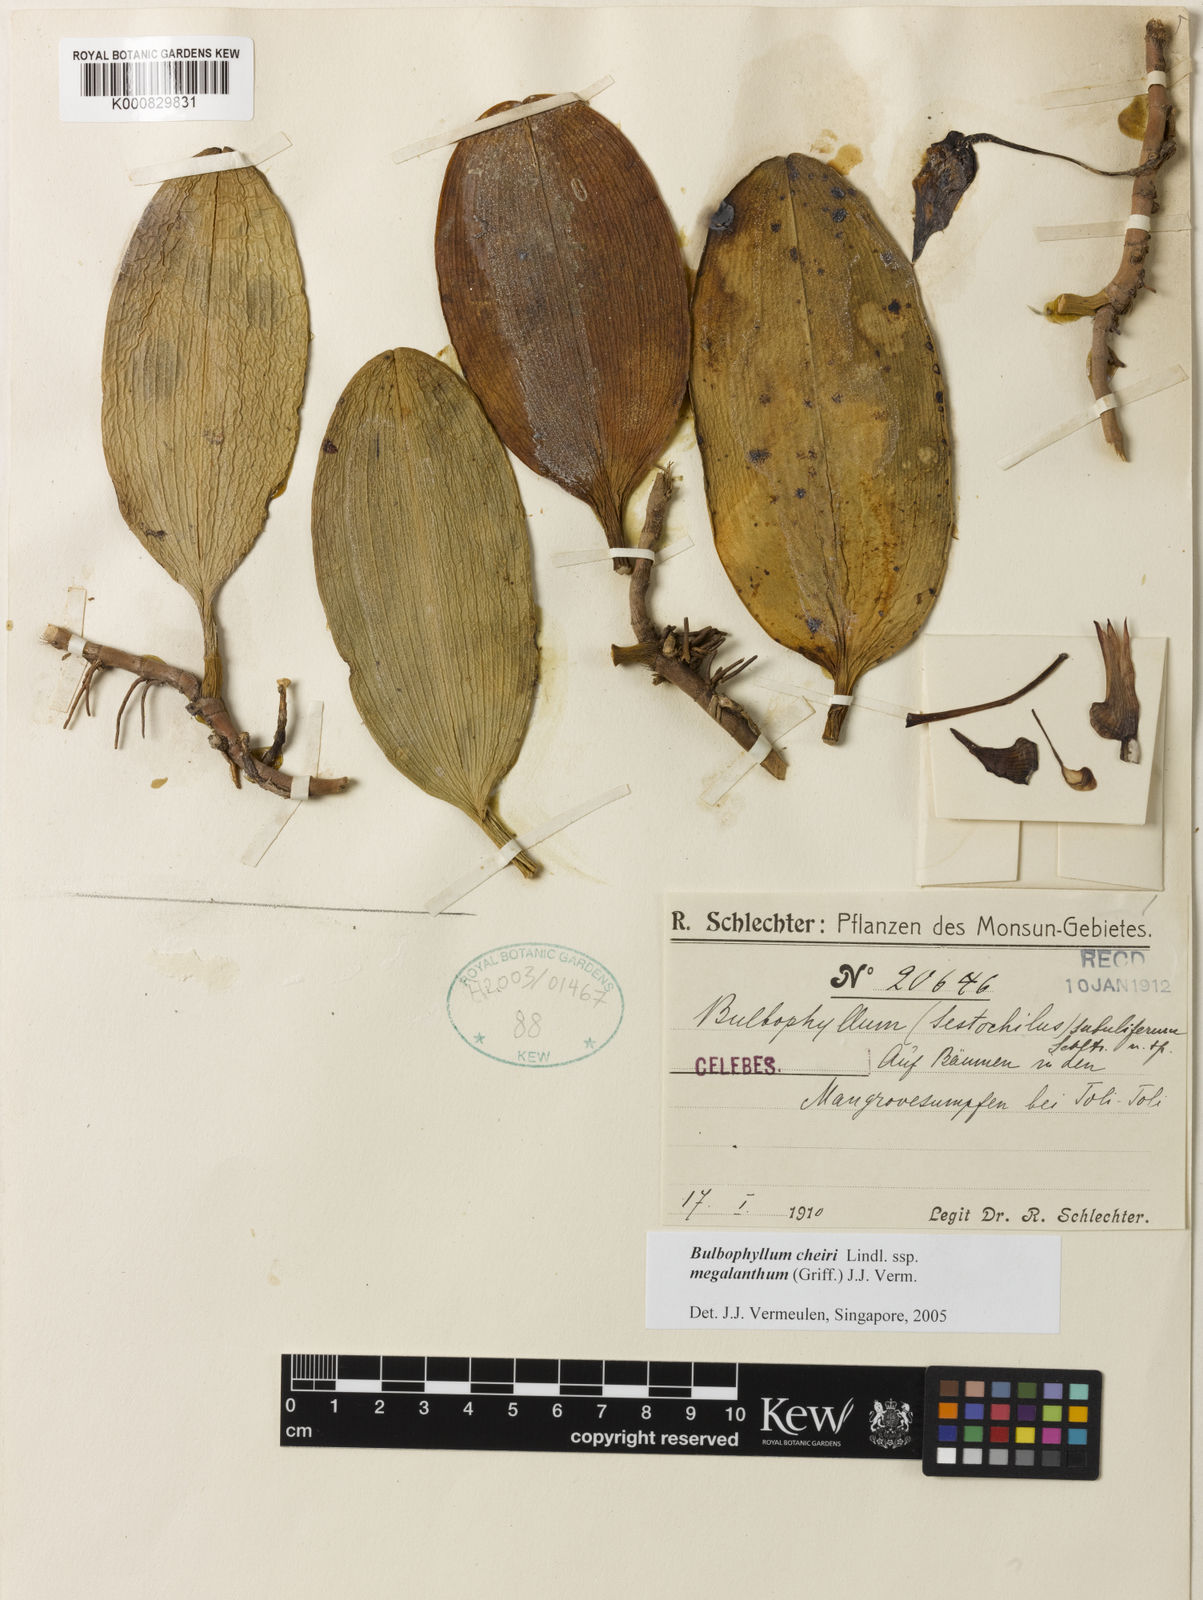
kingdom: Plantae
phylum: Tracheophyta
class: Liliopsida
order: Asparagales
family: Orchidaceae
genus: Bulbophyllum
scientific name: Bulbophyllum cheiri
